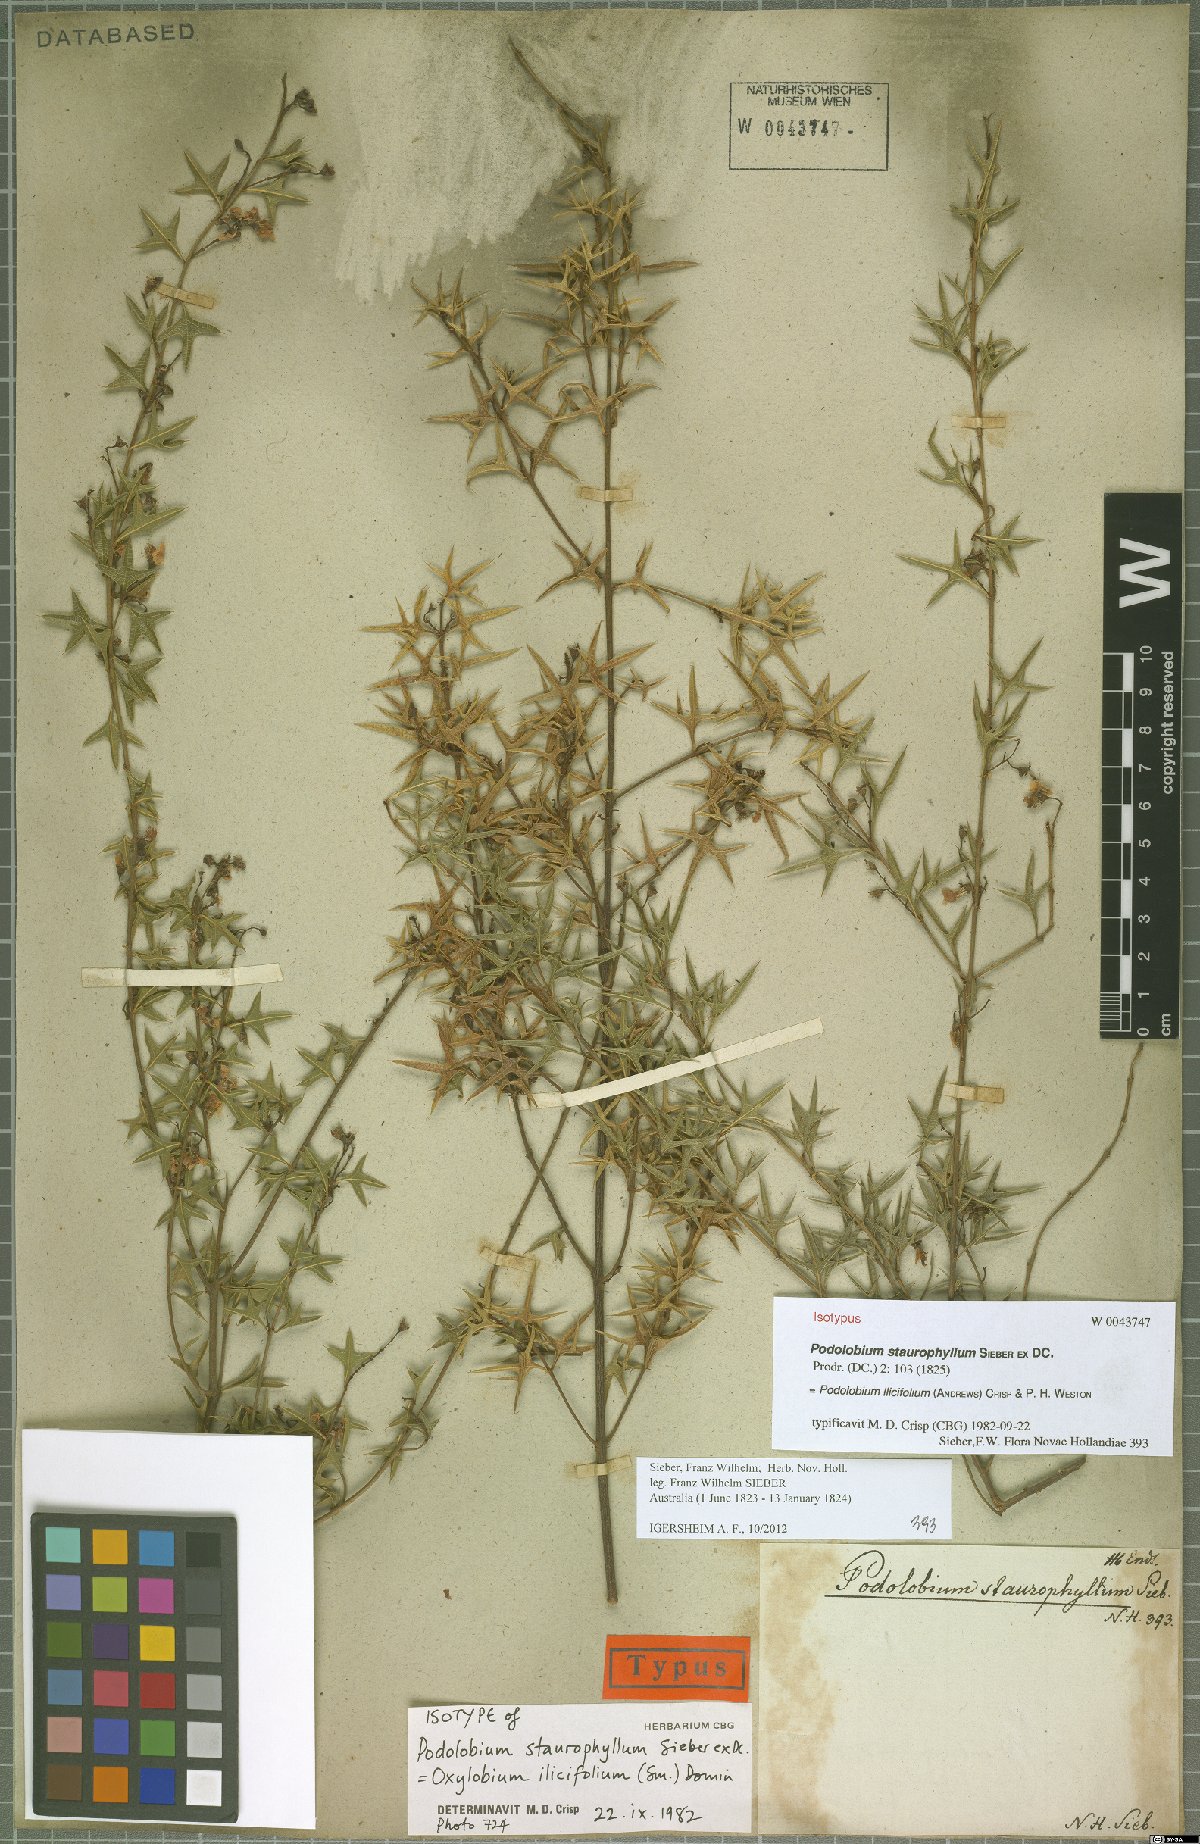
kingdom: Plantae
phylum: Tracheophyta
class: Magnoliopsida
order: Fabales
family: Fabaceae
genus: Podolobium
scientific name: Podolobium ilicifolium
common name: Native holly
